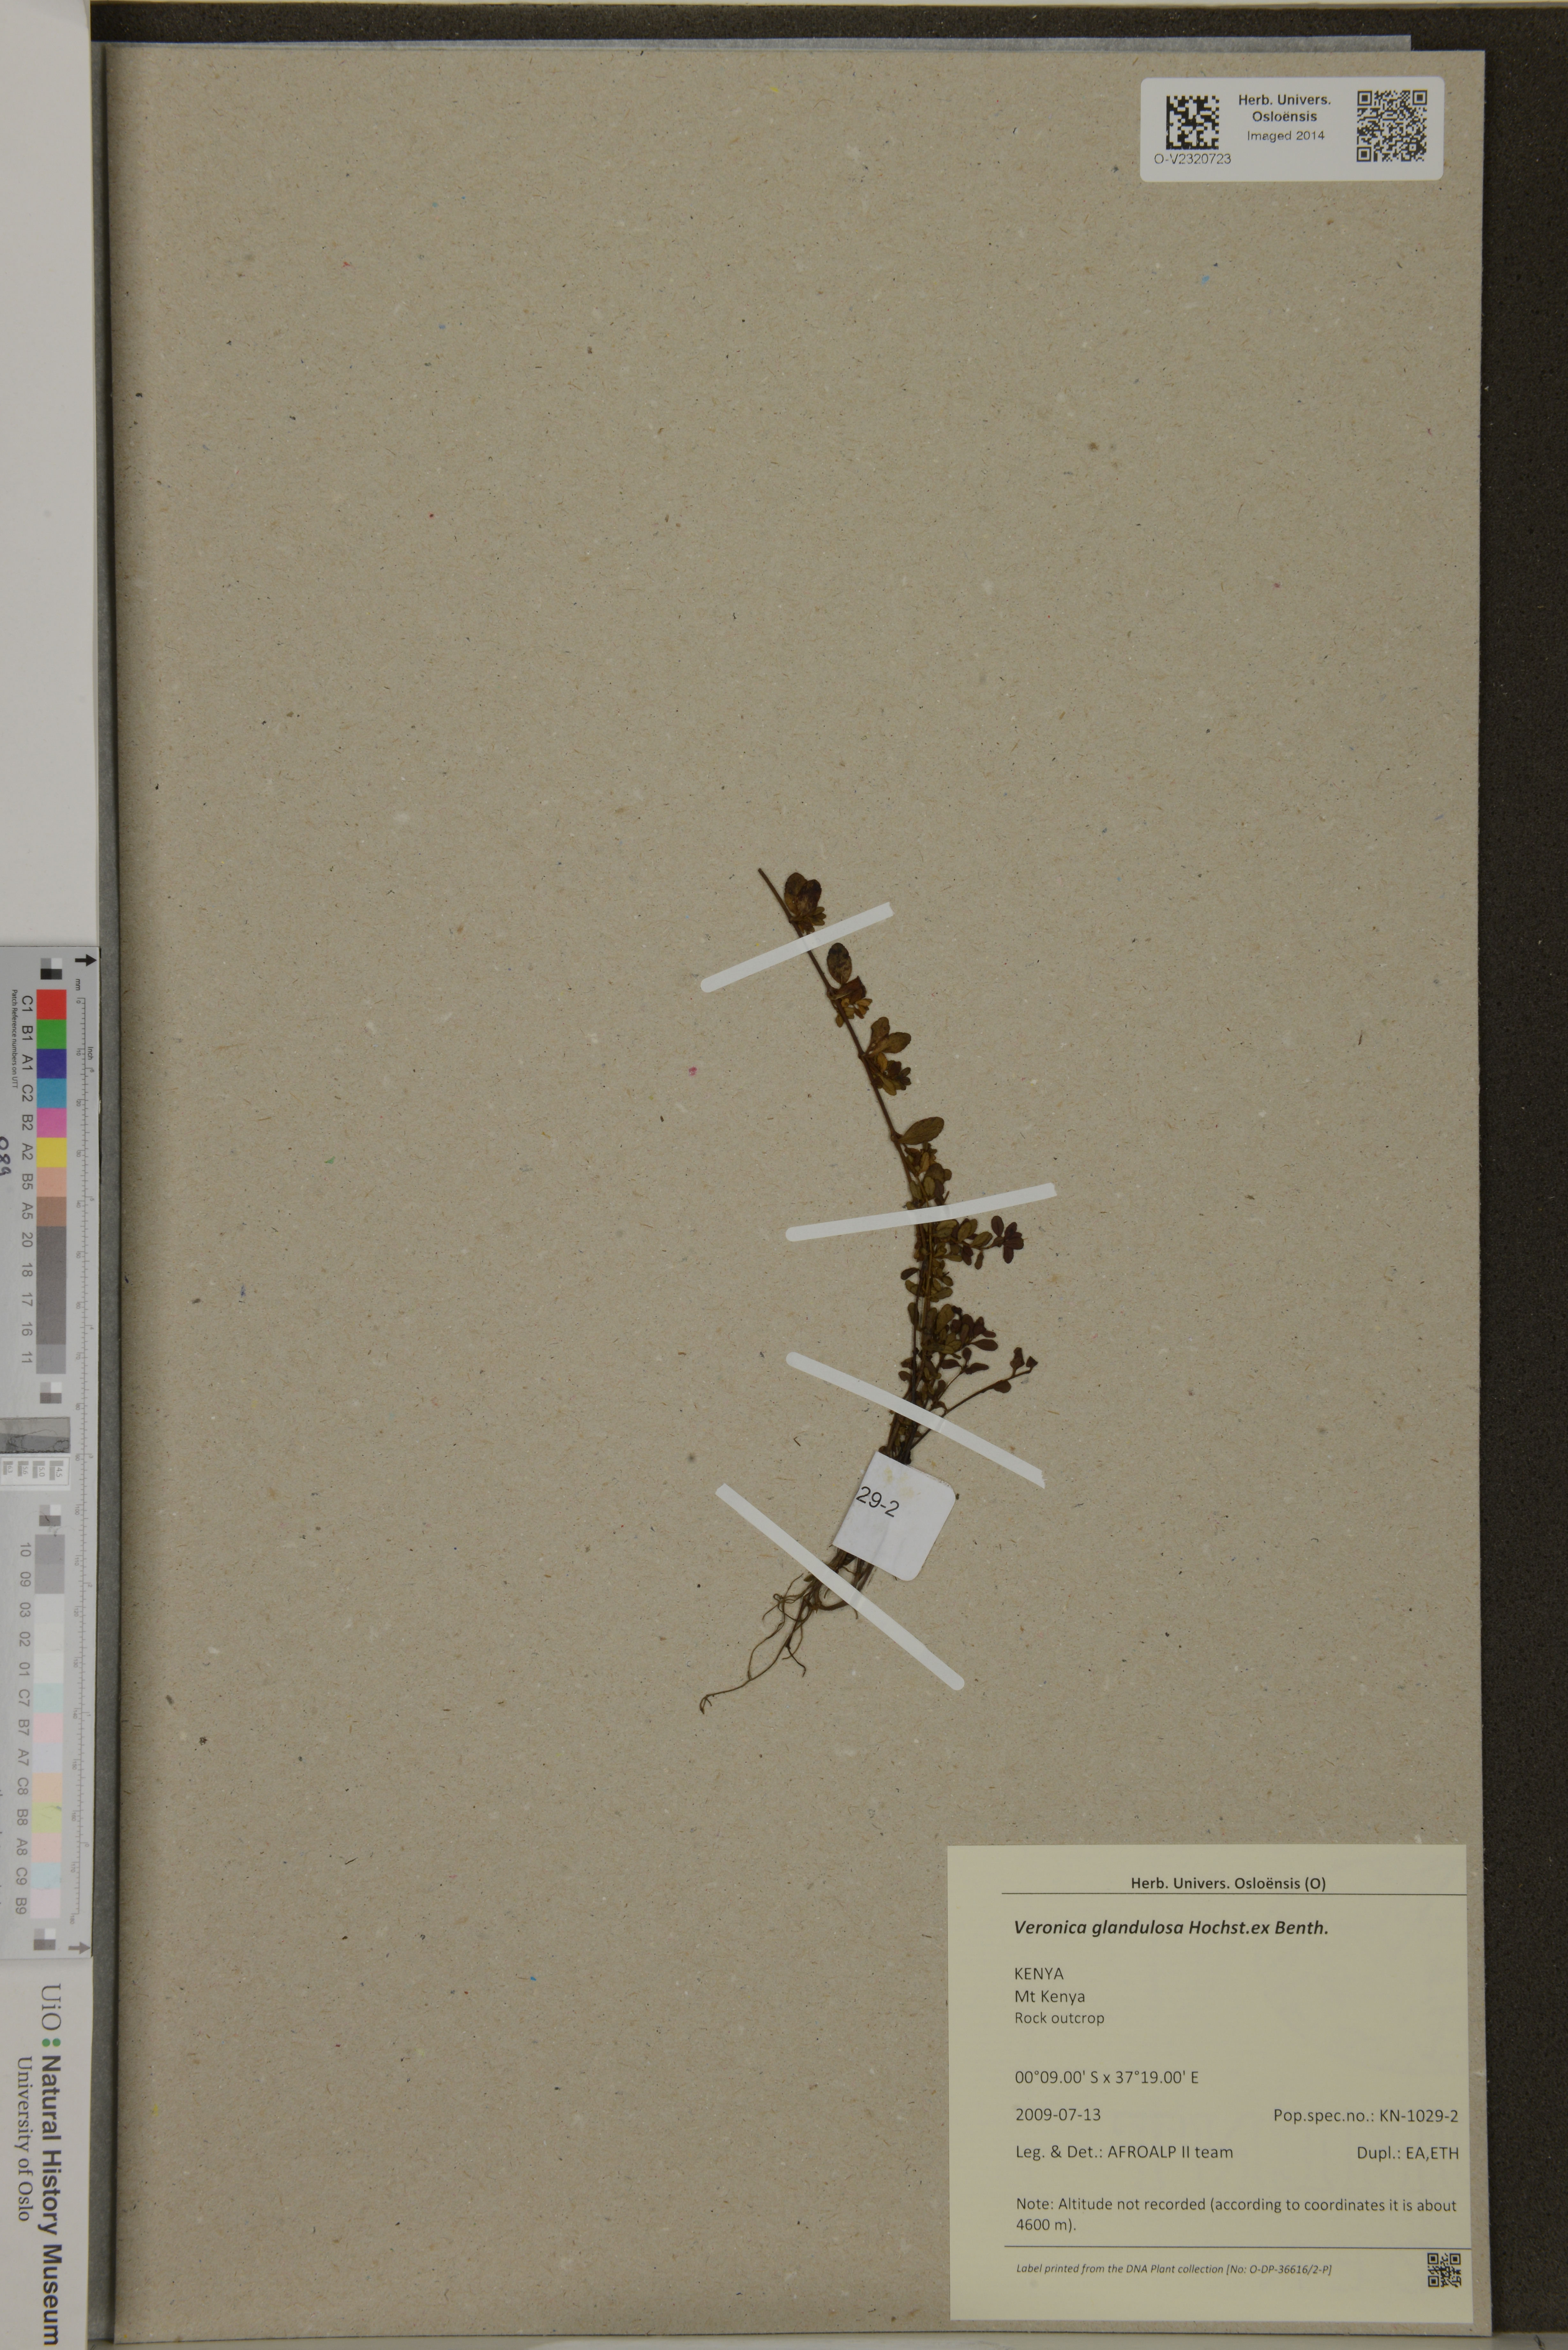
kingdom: Plantae
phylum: Tracheophyta
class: Magnoliopsida
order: Lamiales
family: Plantaginaceae
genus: Veronica
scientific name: Veronica glandulosa
